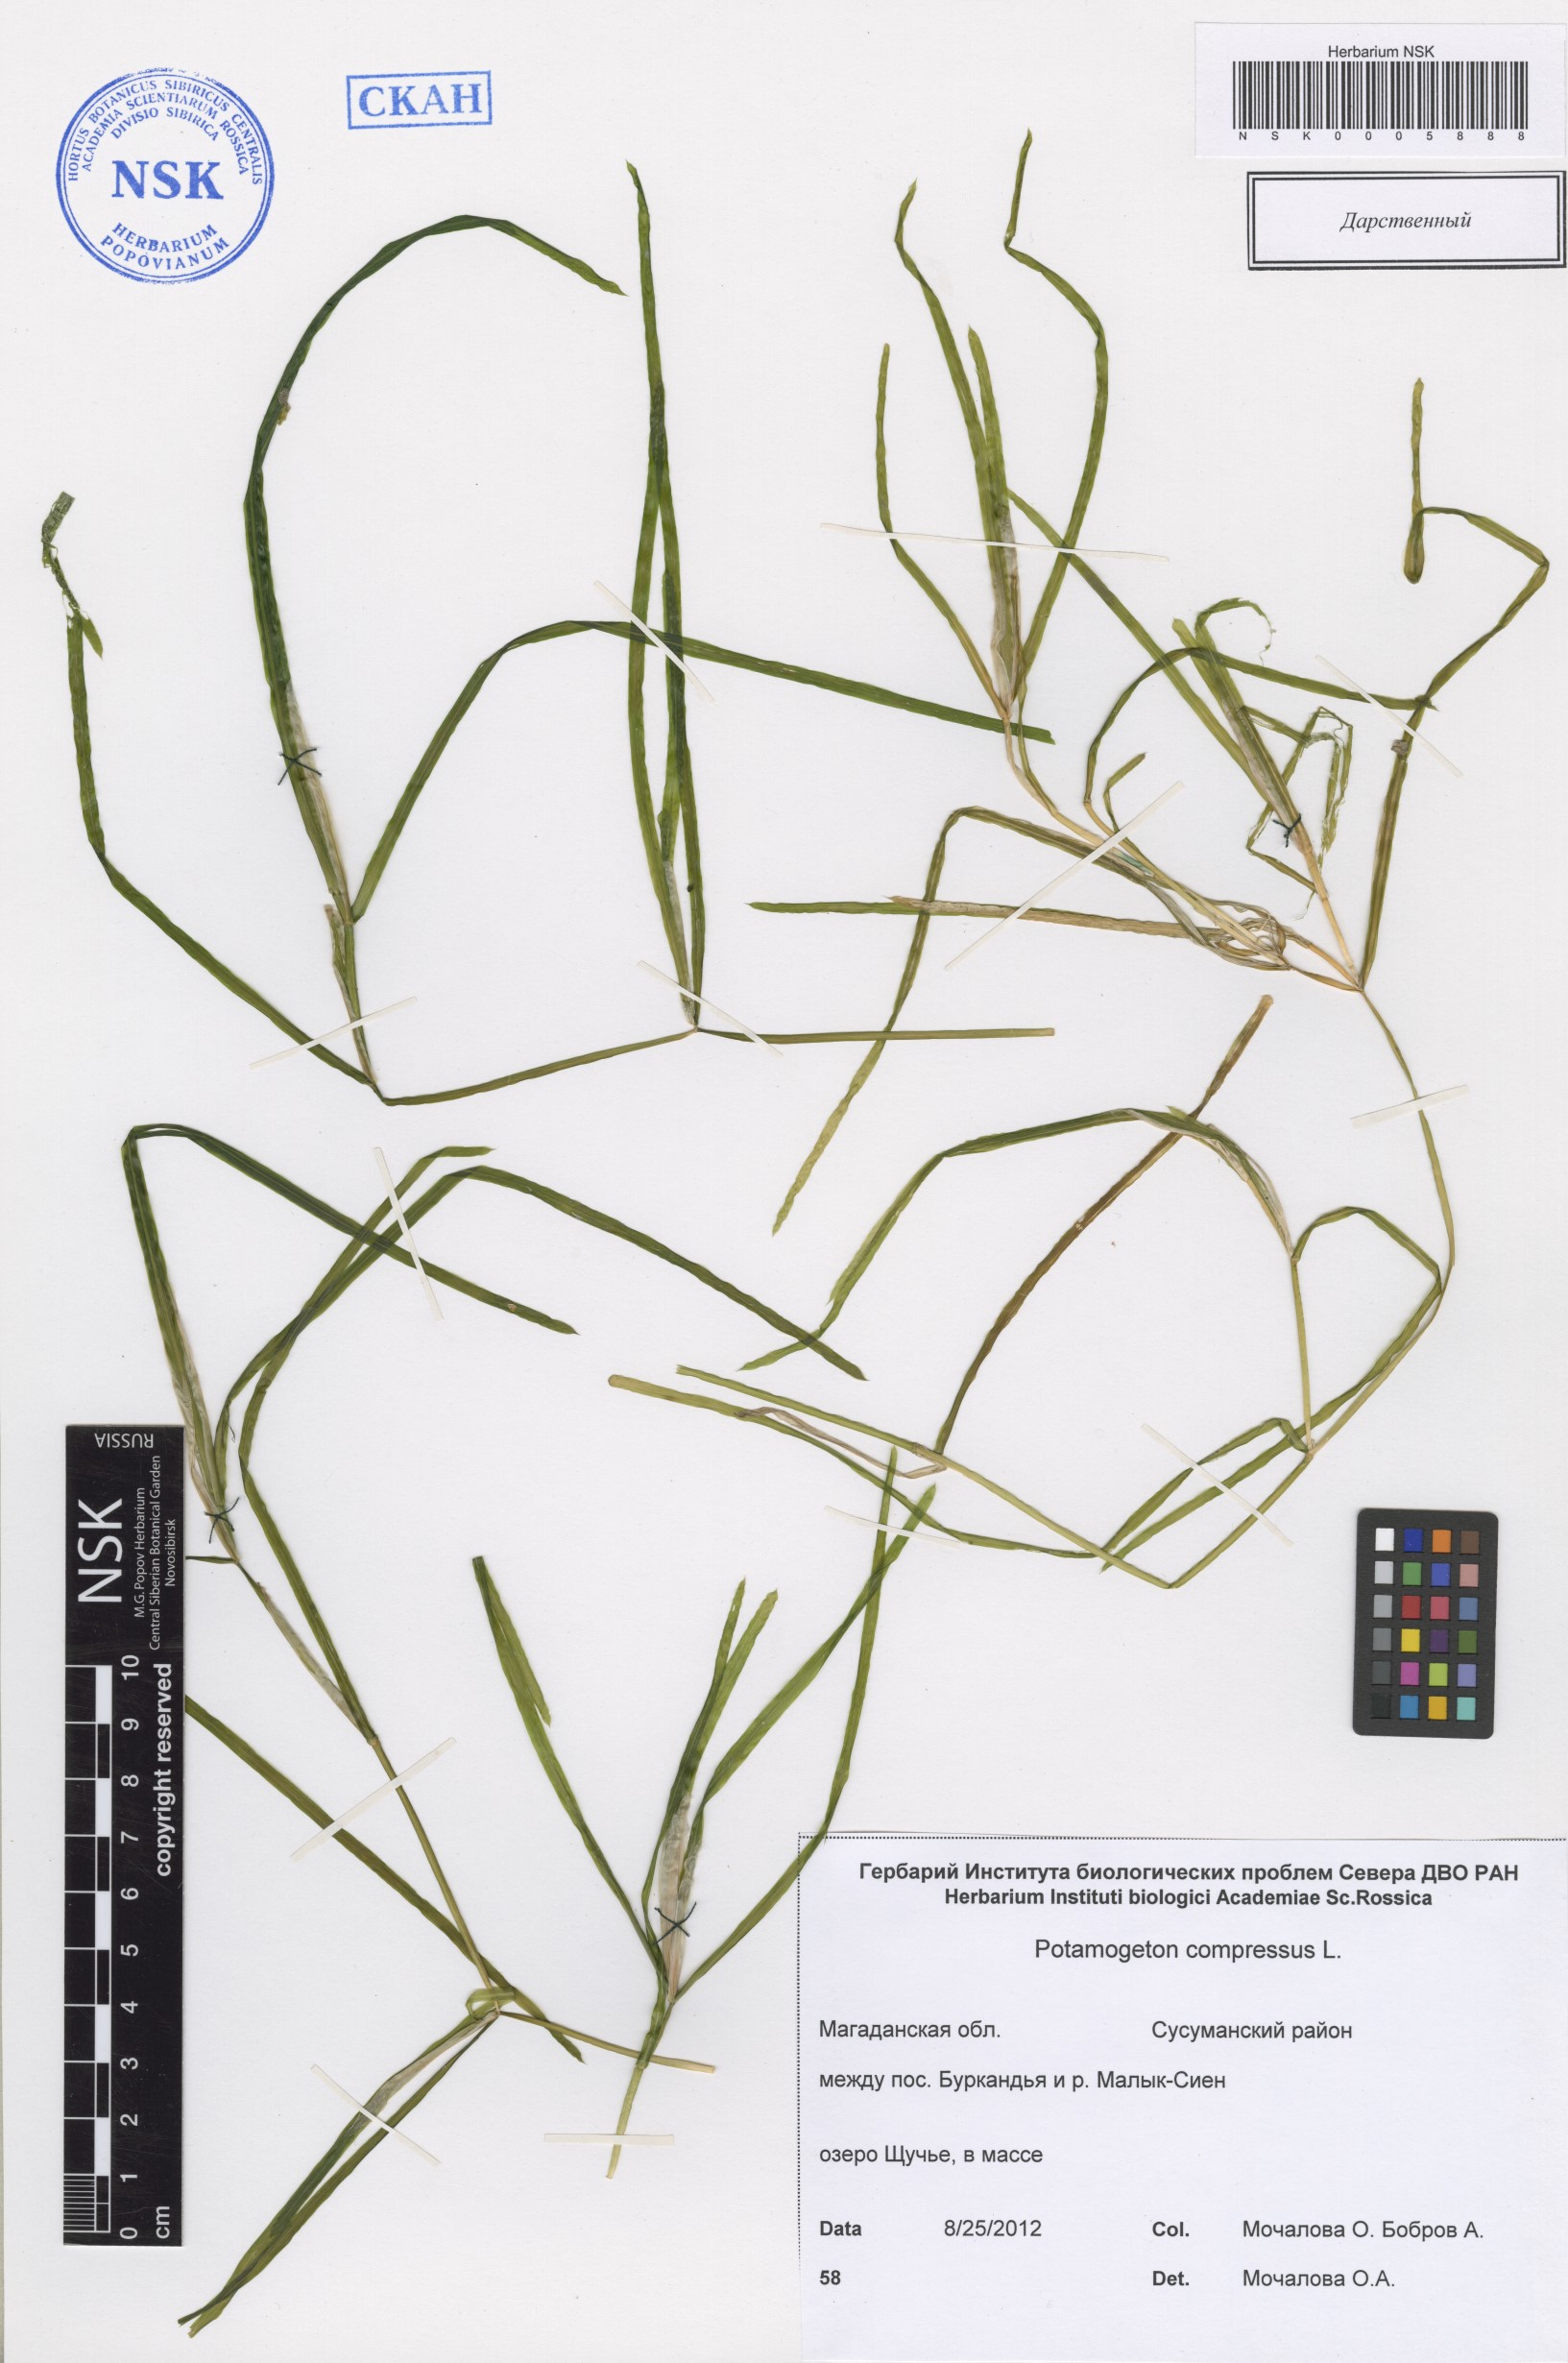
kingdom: Plantae
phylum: Tracheophyta
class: Liliopsida
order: Alismatales
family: Potamogetonaceae
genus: Potamogeton
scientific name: Potamogeton compressus
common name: Grass-wrack pondweed
